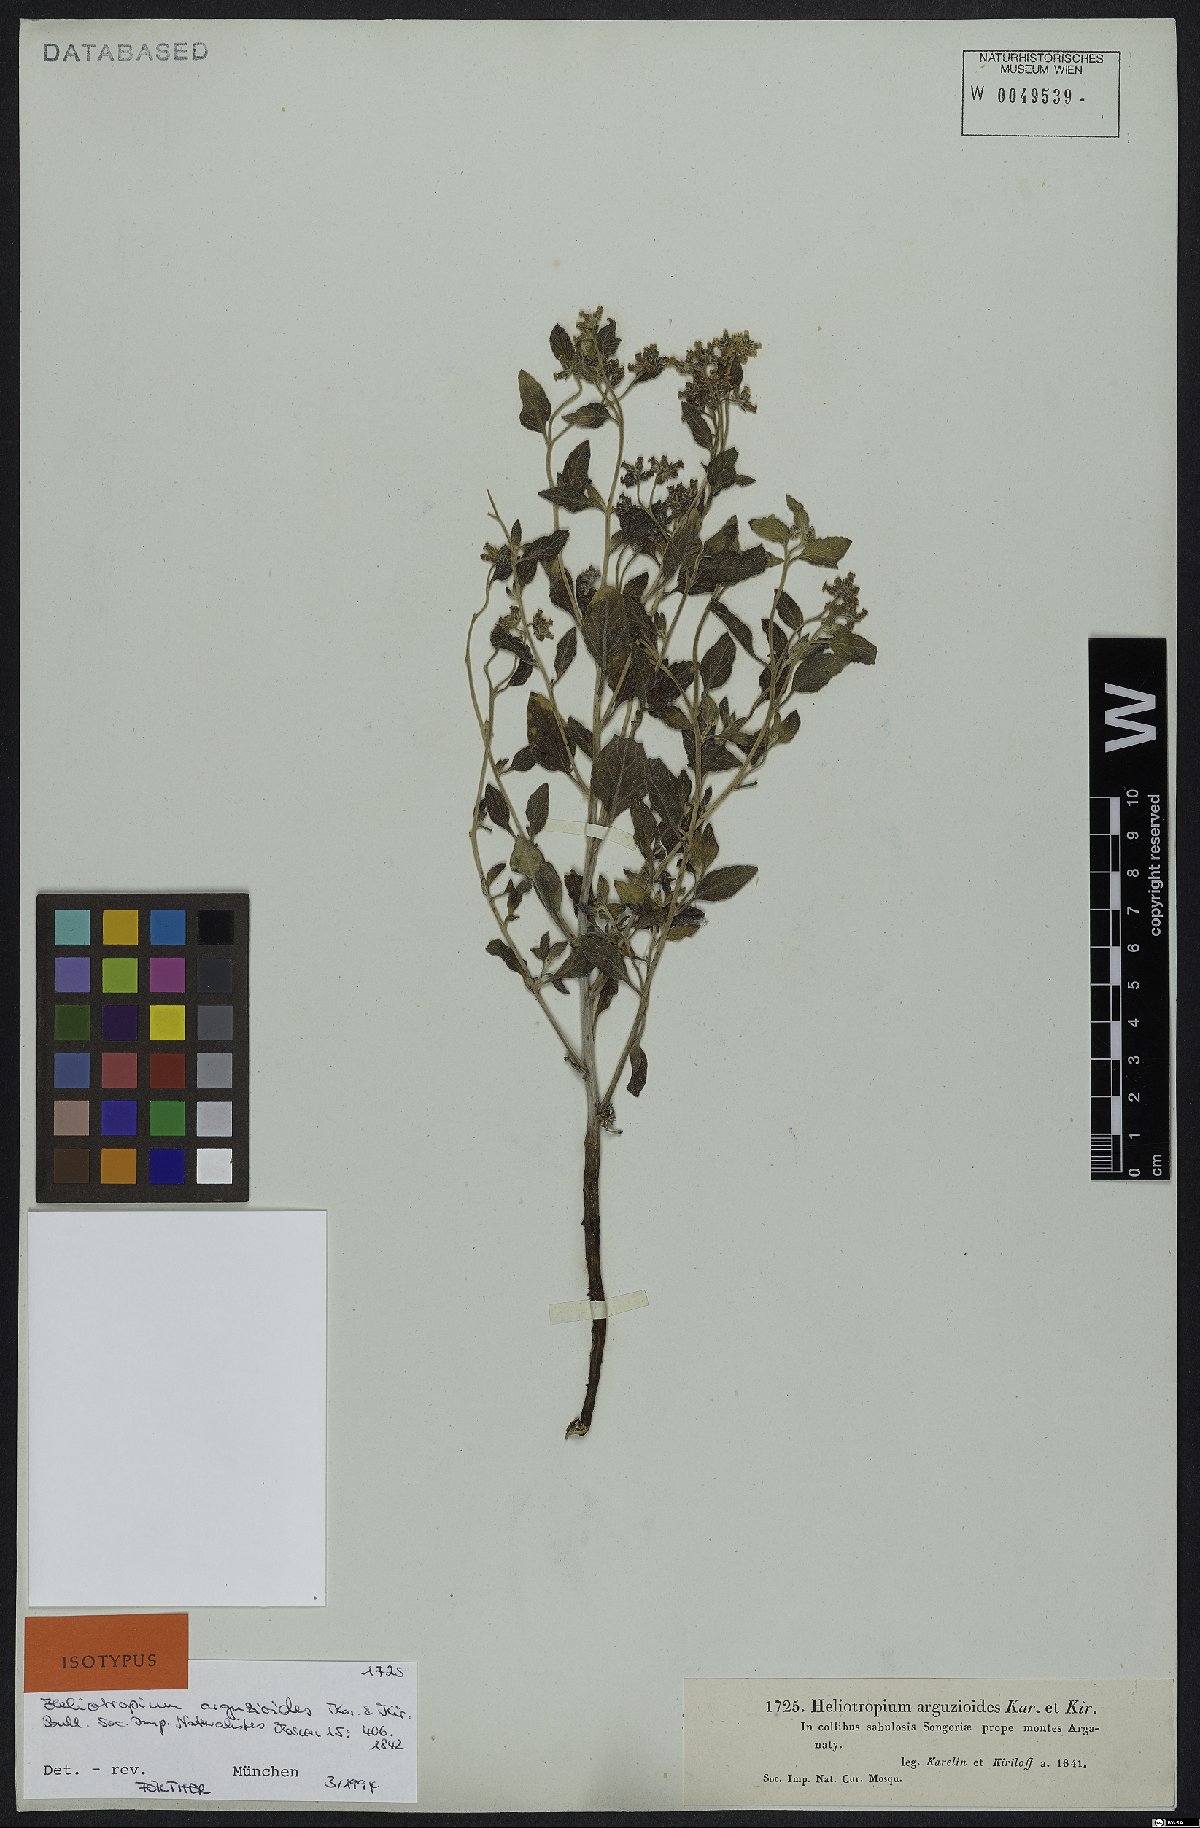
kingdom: Plantae
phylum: Tracheophyta
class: Magnoliopsida
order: Boraginales
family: Heliotropiaceae
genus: Heliotropium
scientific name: Heliotropium arguzioides
